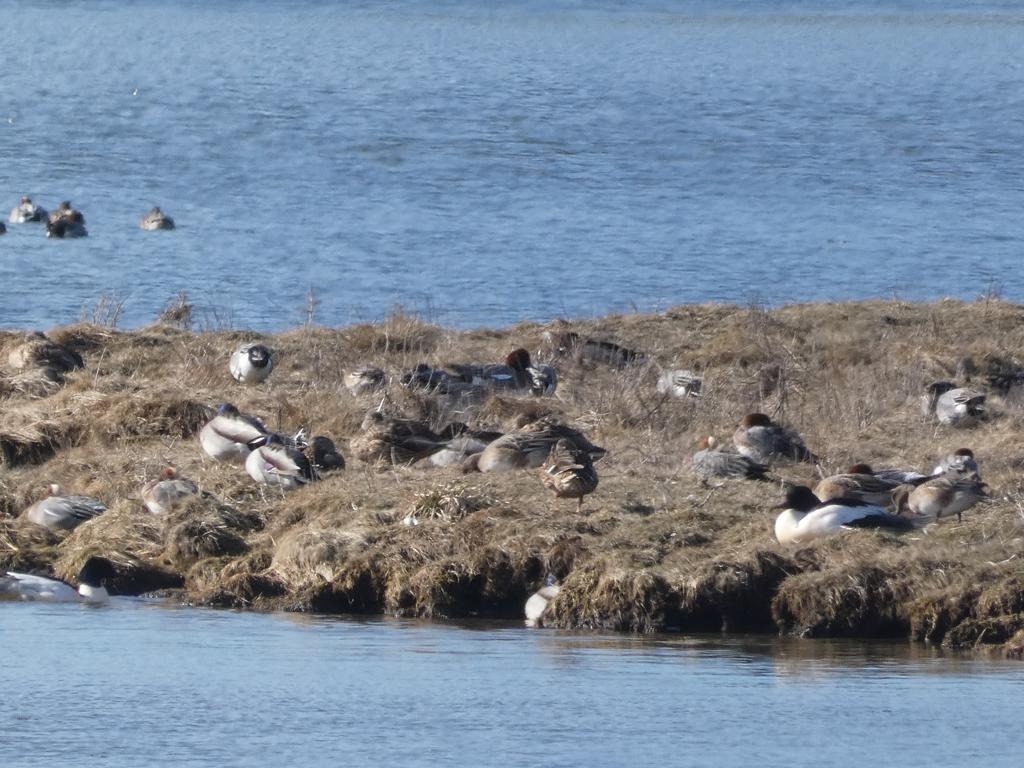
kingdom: Animalia
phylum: Chordata
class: Aves
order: Anseriformes
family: Anatidae
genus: Anas
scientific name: Anas platyrhynchos
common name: Gråand
